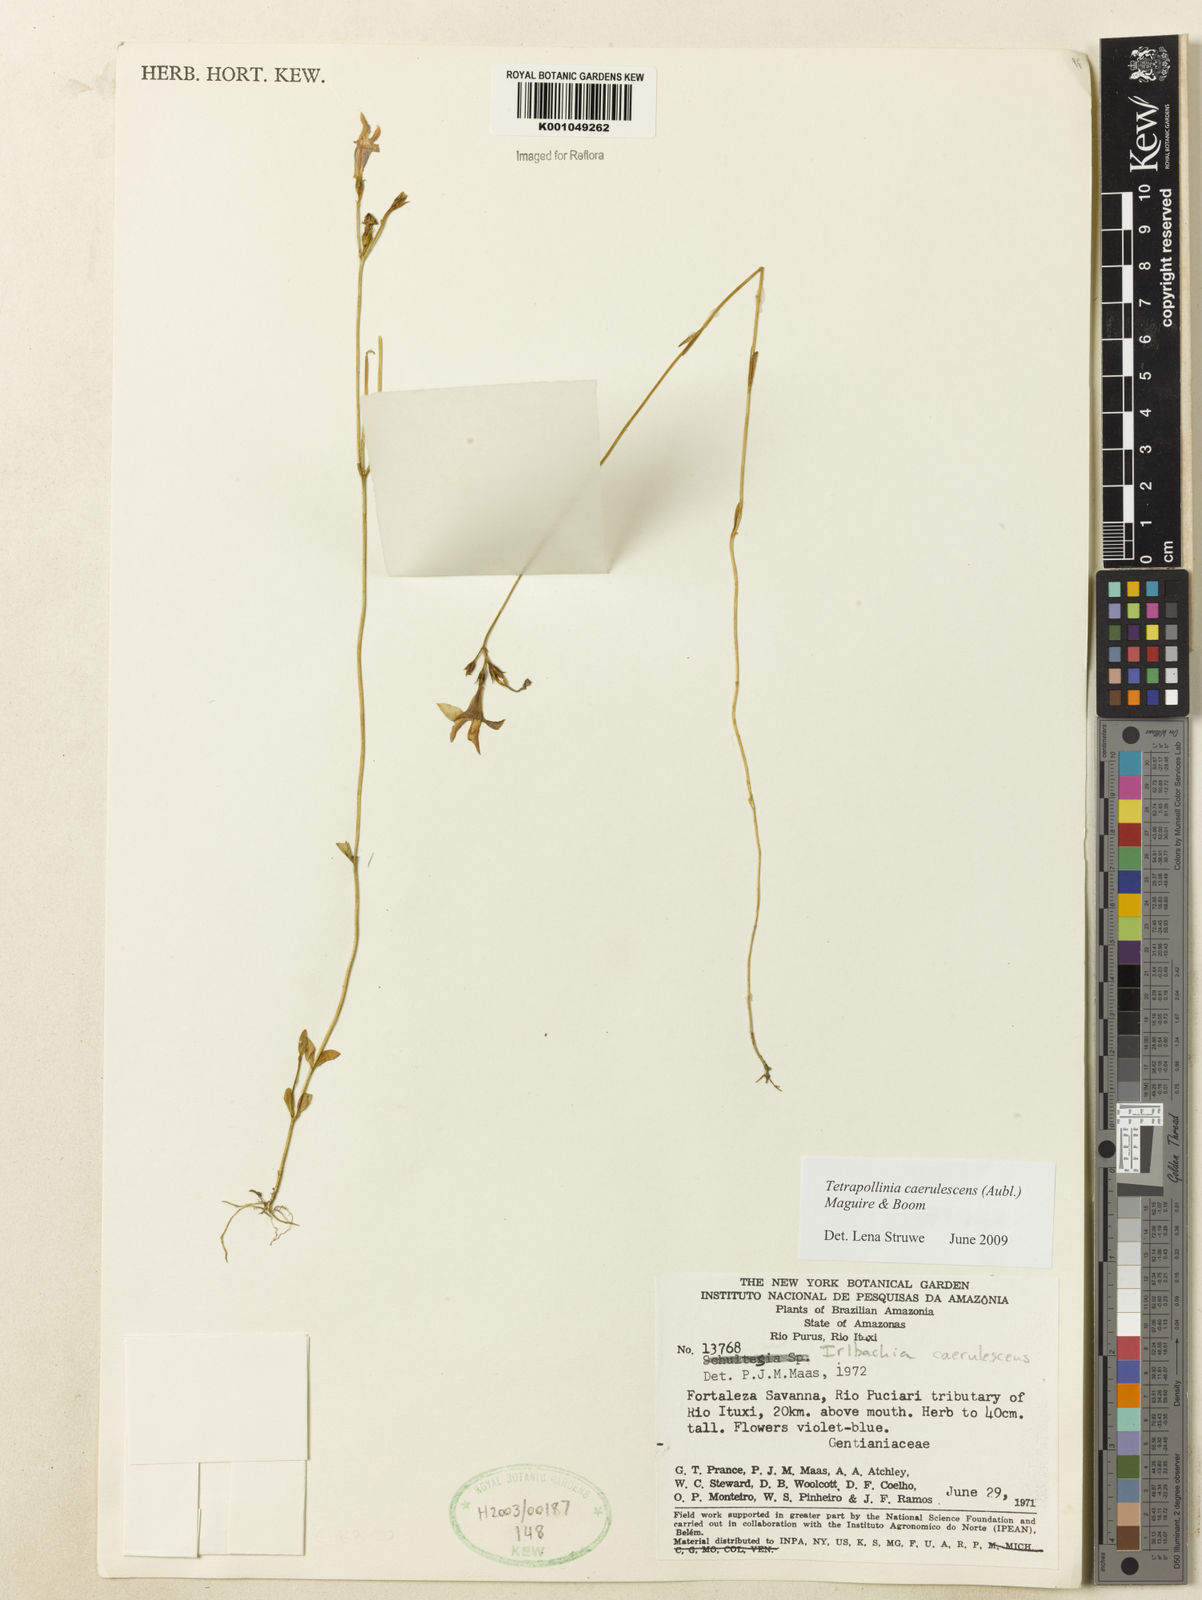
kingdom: Plantae
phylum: Tracheophyta
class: Magnoliopsida
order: Gentianales
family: Gentianaceae
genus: Tetrapollinia
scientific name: Tetrapollinia caerulescens
